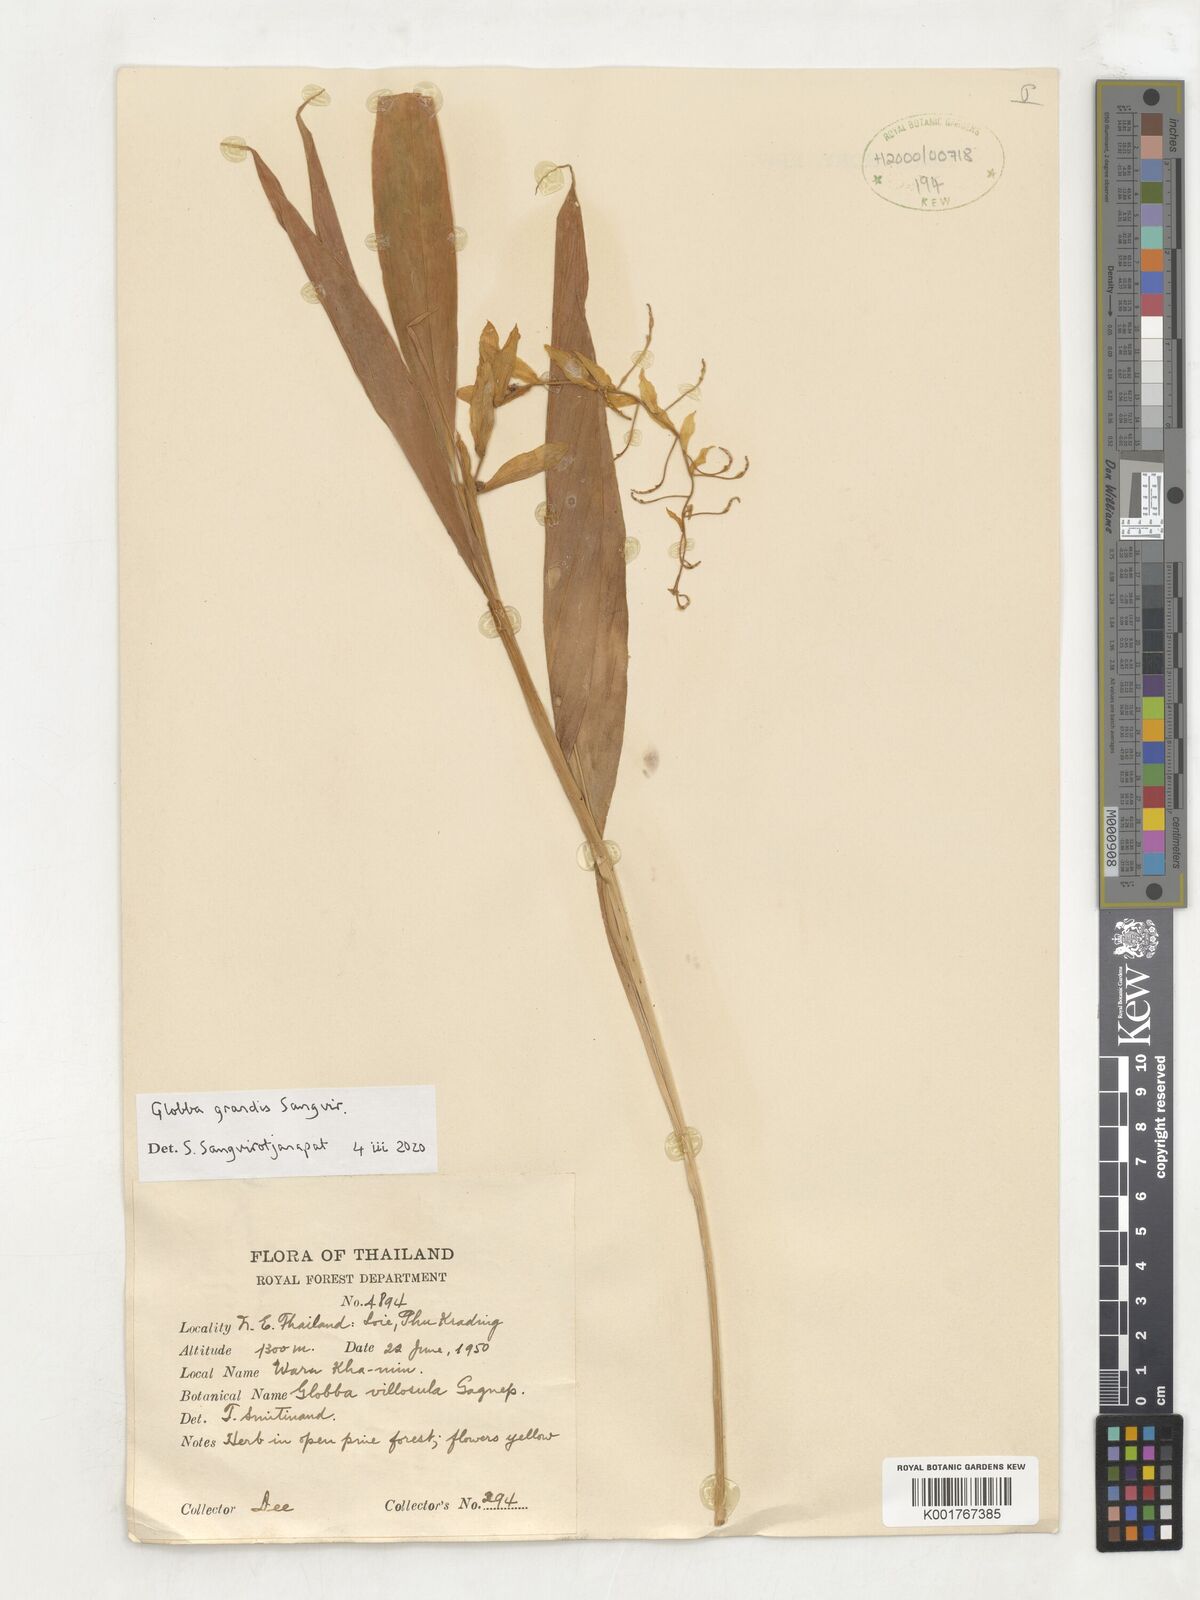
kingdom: Plantae
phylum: Tracheophyta
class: Liliopsida
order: Zingiberales
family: Zingiberaceae
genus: Globba
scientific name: Globba
